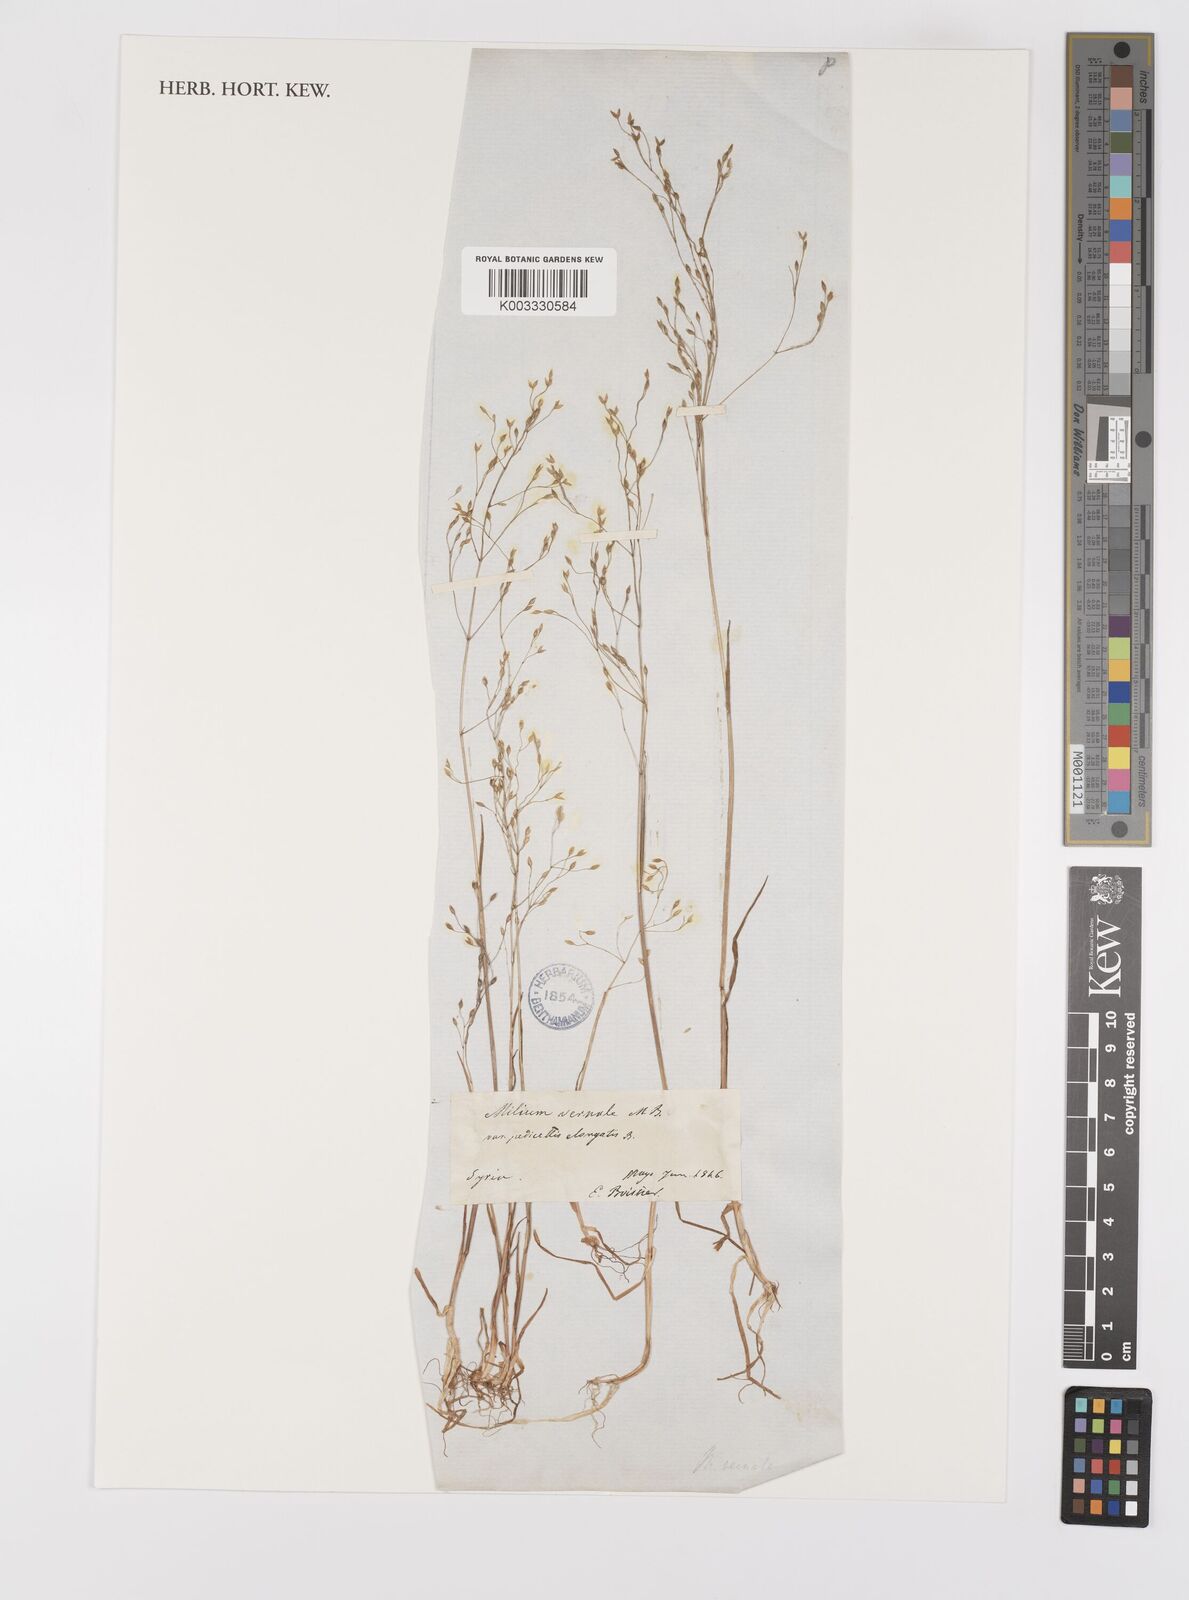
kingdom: Plantae
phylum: Tracheophyta
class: Liliopsida
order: Poales
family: Poaceae
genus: Milium
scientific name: Milium pedicellare
